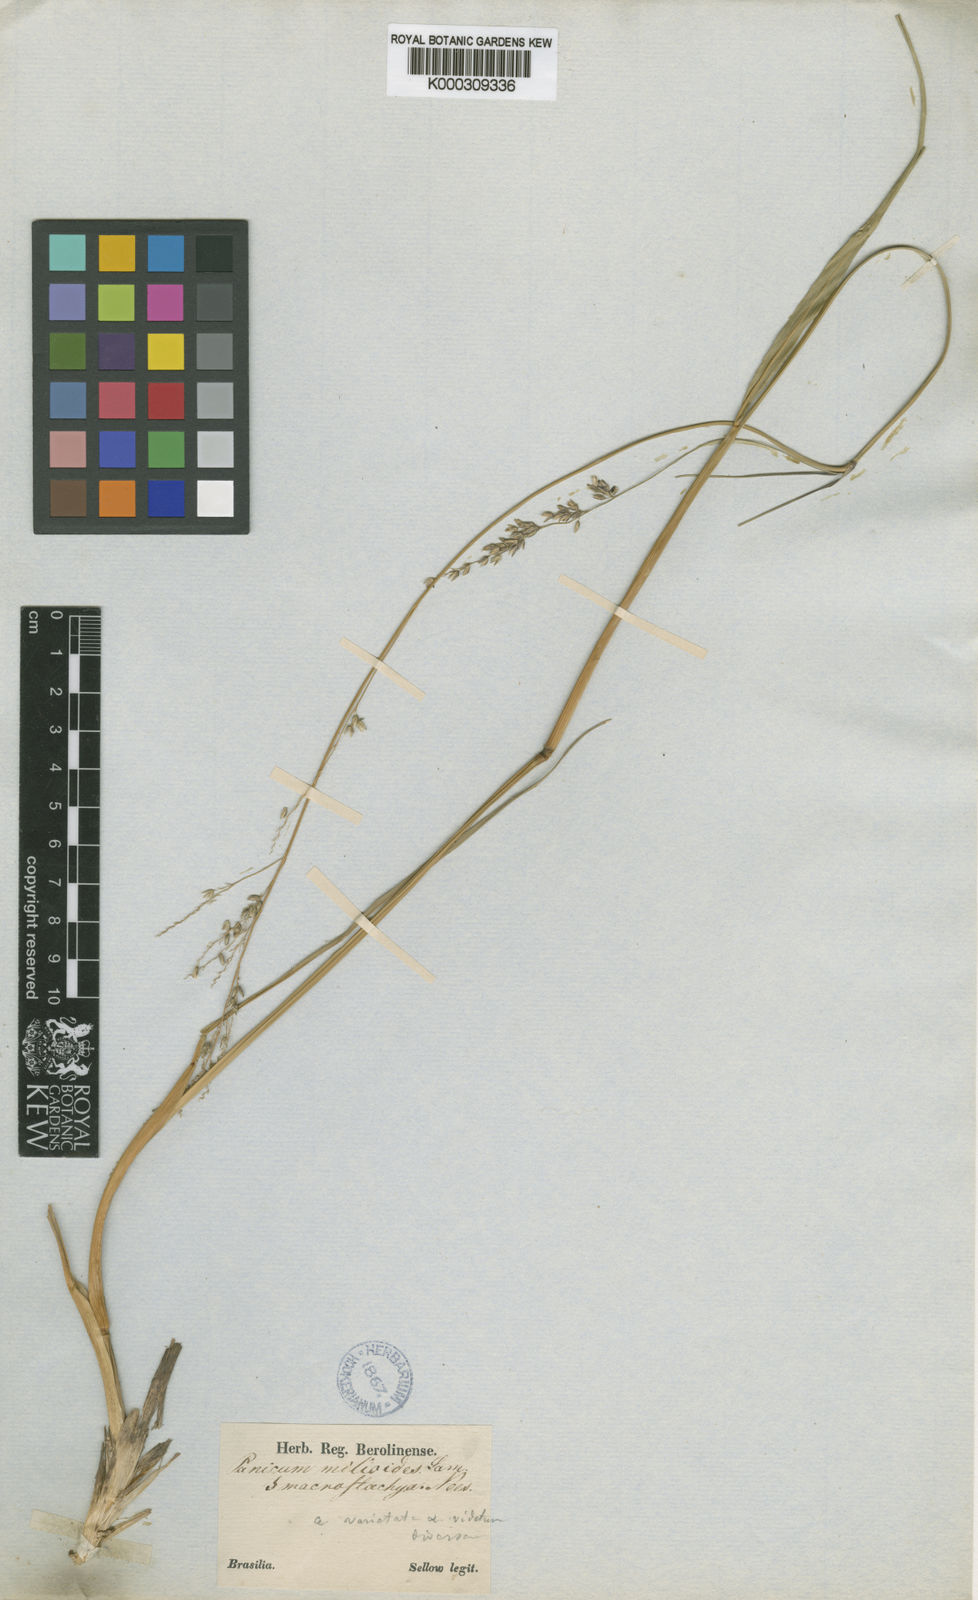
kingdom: Plantae
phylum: Tracheophyta
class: Liliopsida
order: Poales
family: Poaceae
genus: Steinchisma
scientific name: Steinchisma spathellosum
